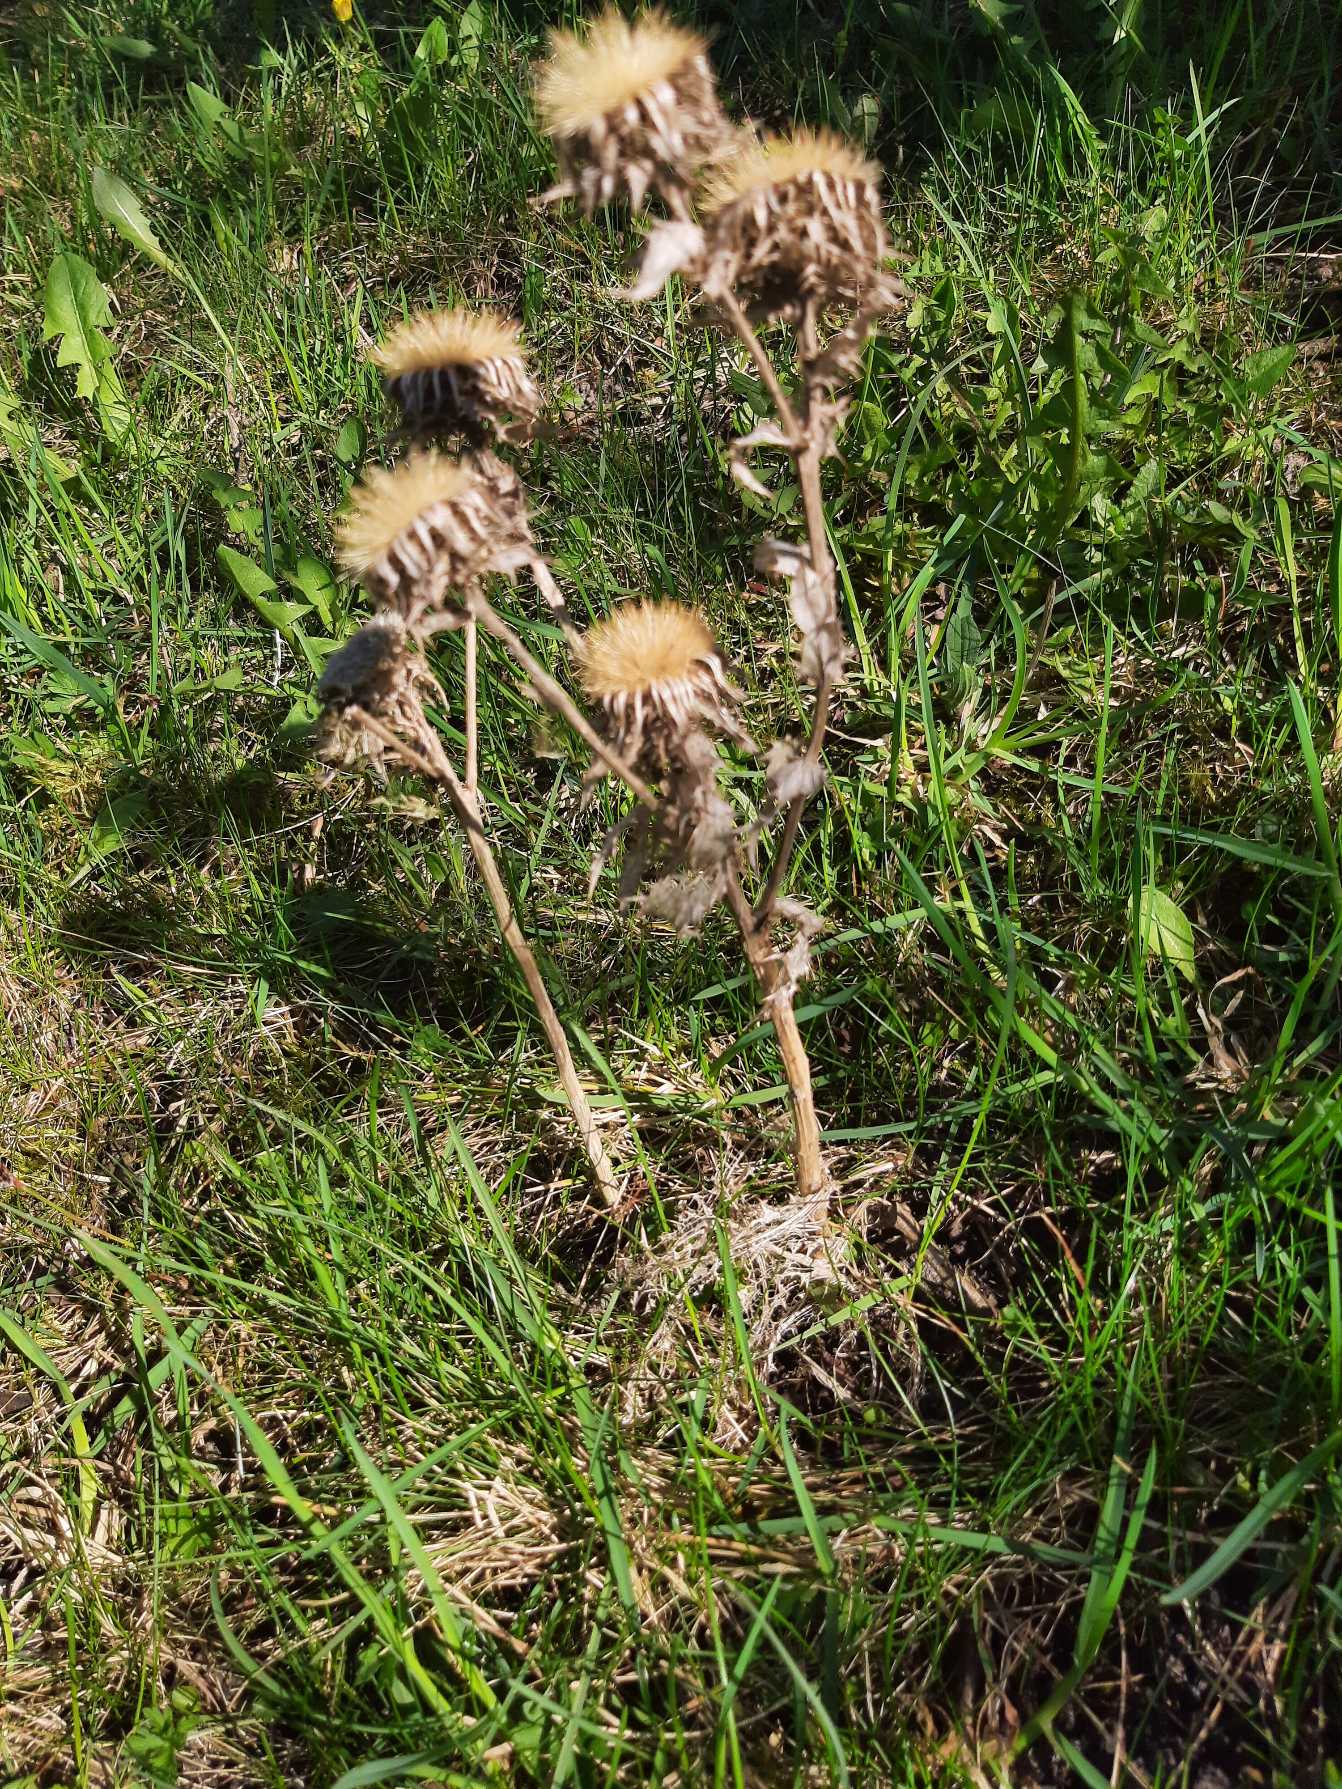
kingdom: Plantae
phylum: Tracheophyta
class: Magnoliopsida
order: Asterales
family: Asteraceae
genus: Carlina
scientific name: Carlina vulgaris
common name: Bakketidsel
